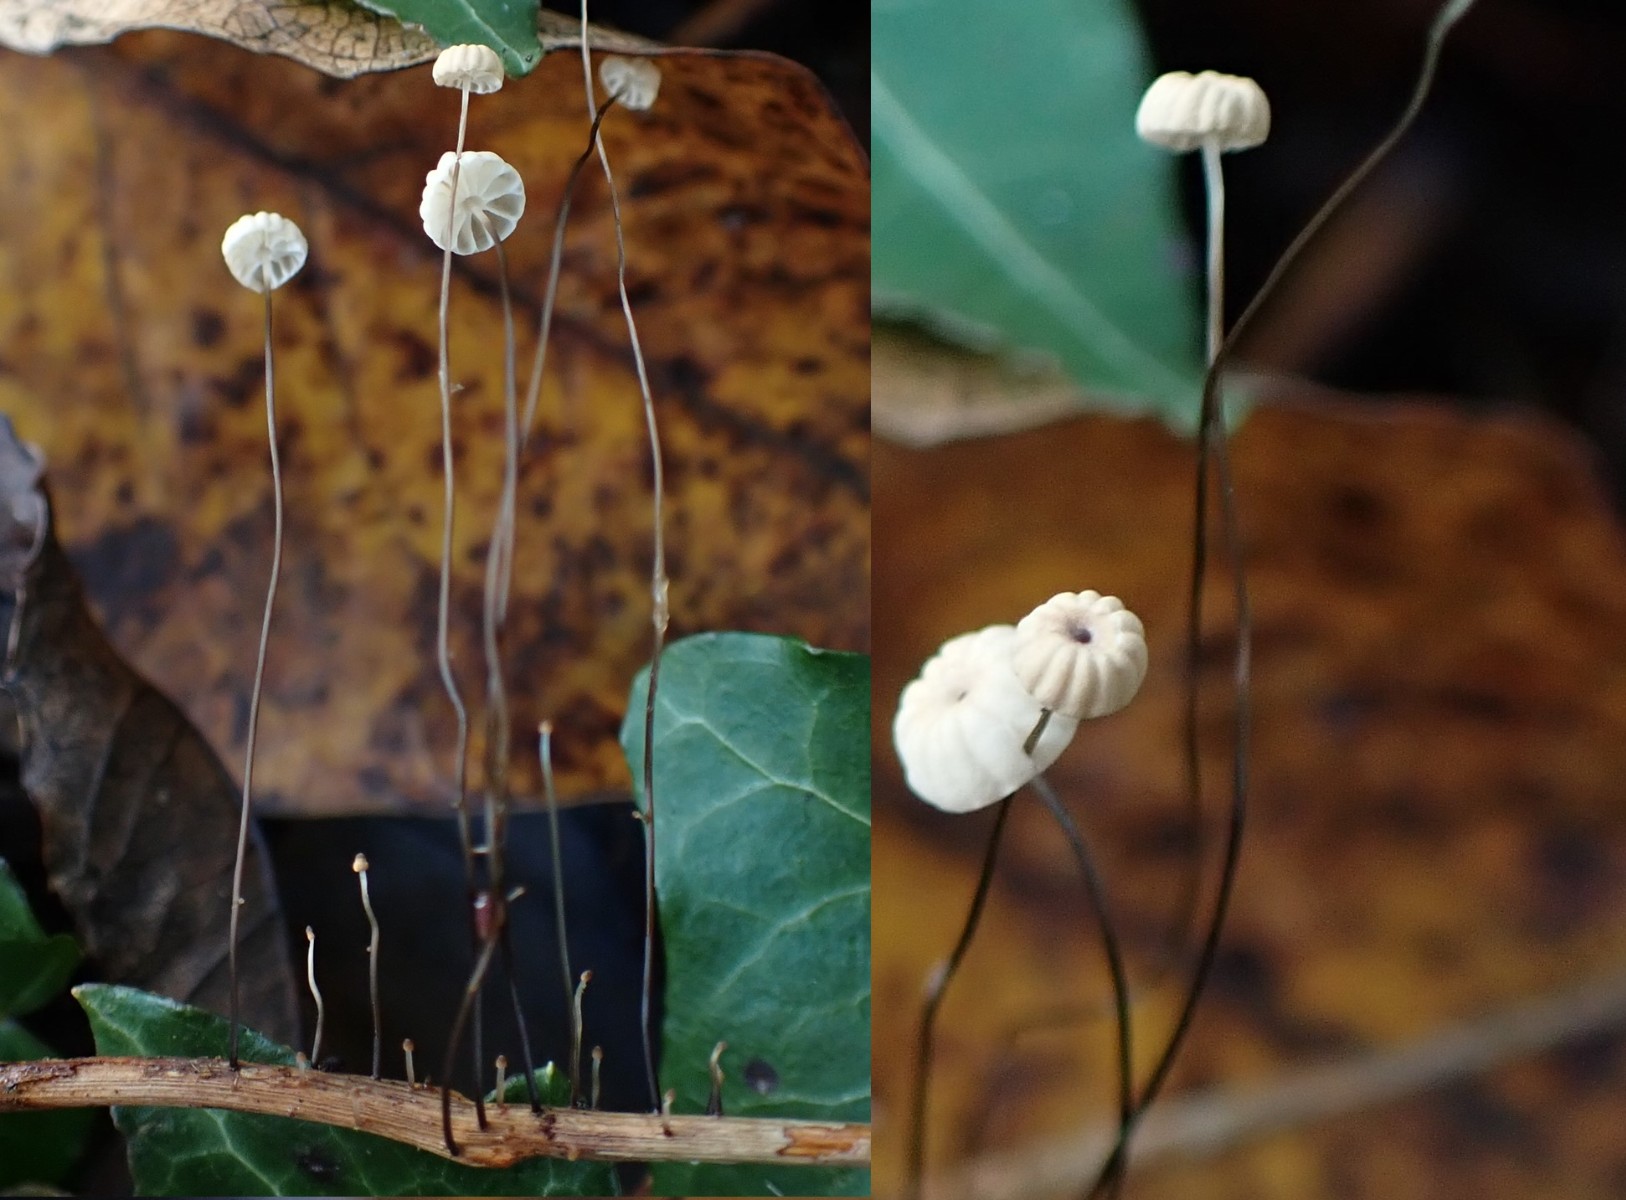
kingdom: Fungi
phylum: Basidiomycota
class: Agaricomycetes
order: Agaricales
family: Marasmiaceae
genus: Marasmius
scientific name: Marasmius bulliardii
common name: furet bruskhat
